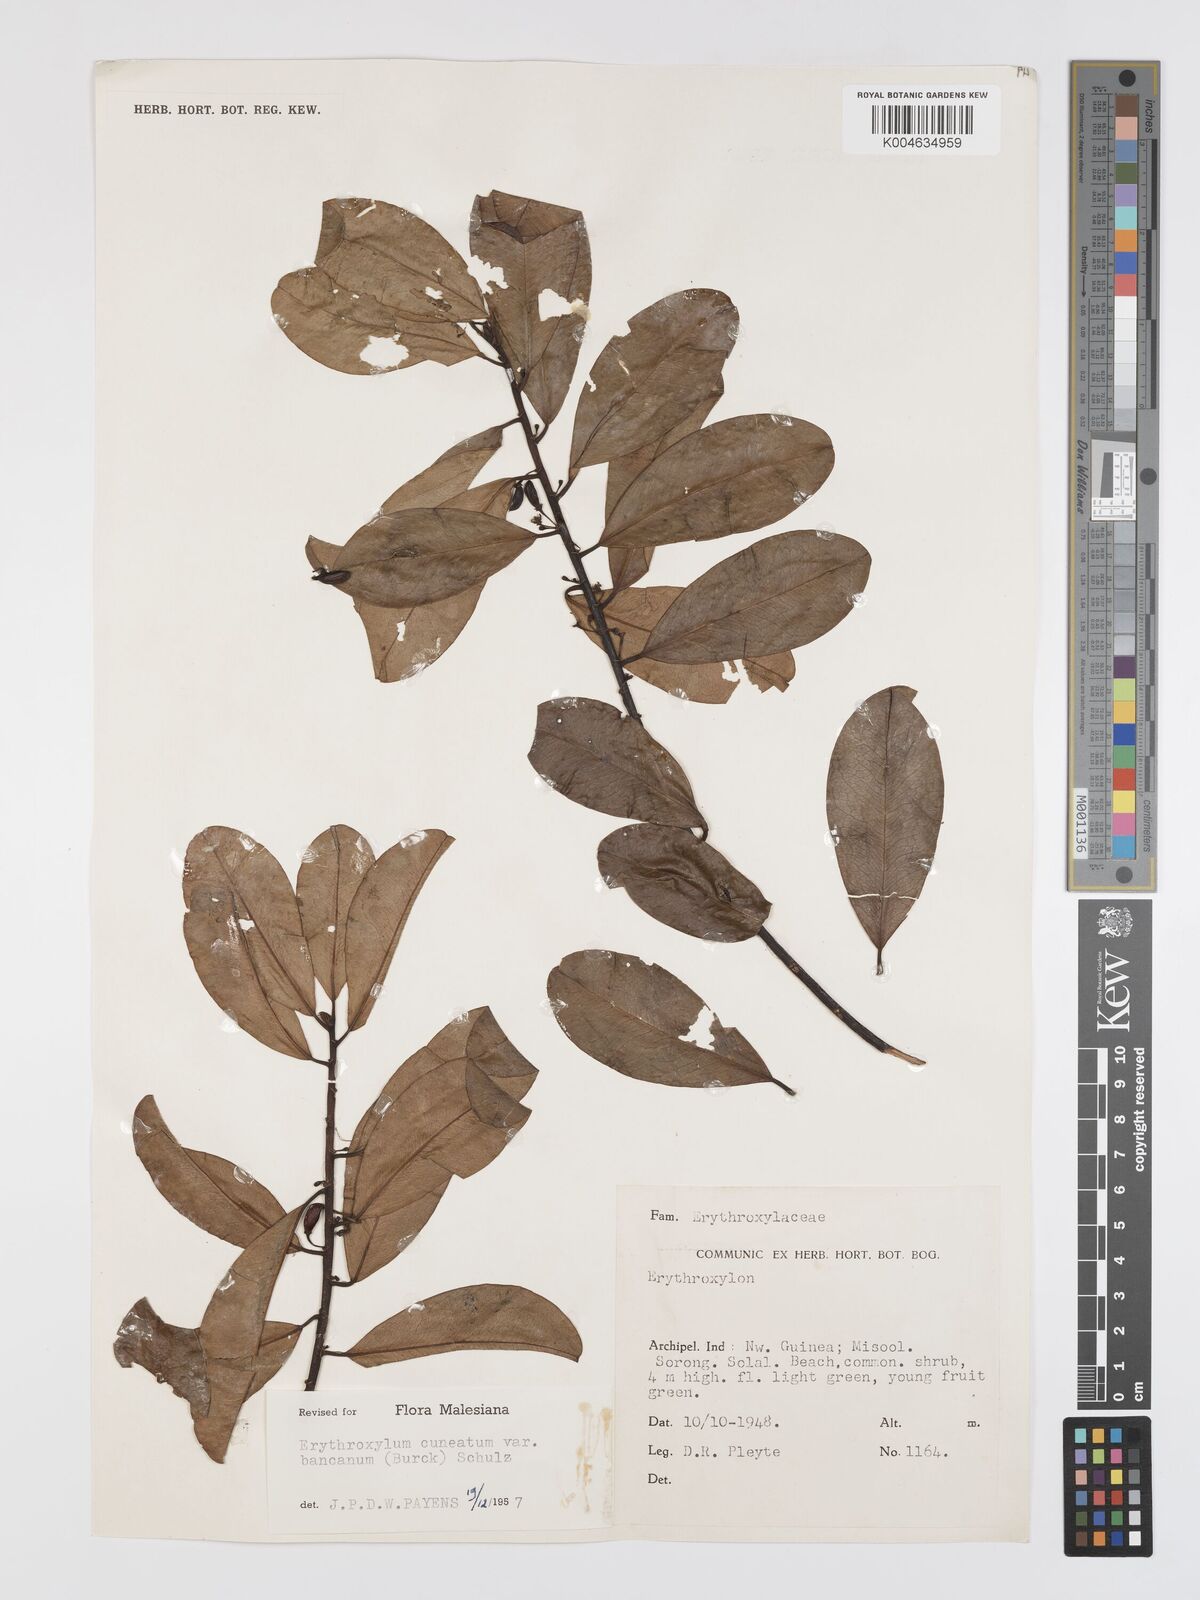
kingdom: Plantae
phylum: Tracheophyta
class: Magnoliopsida
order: Malpighiales
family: Erythroxylaceae
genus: Erythroxylum
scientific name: Erythroxylum cuneatum
